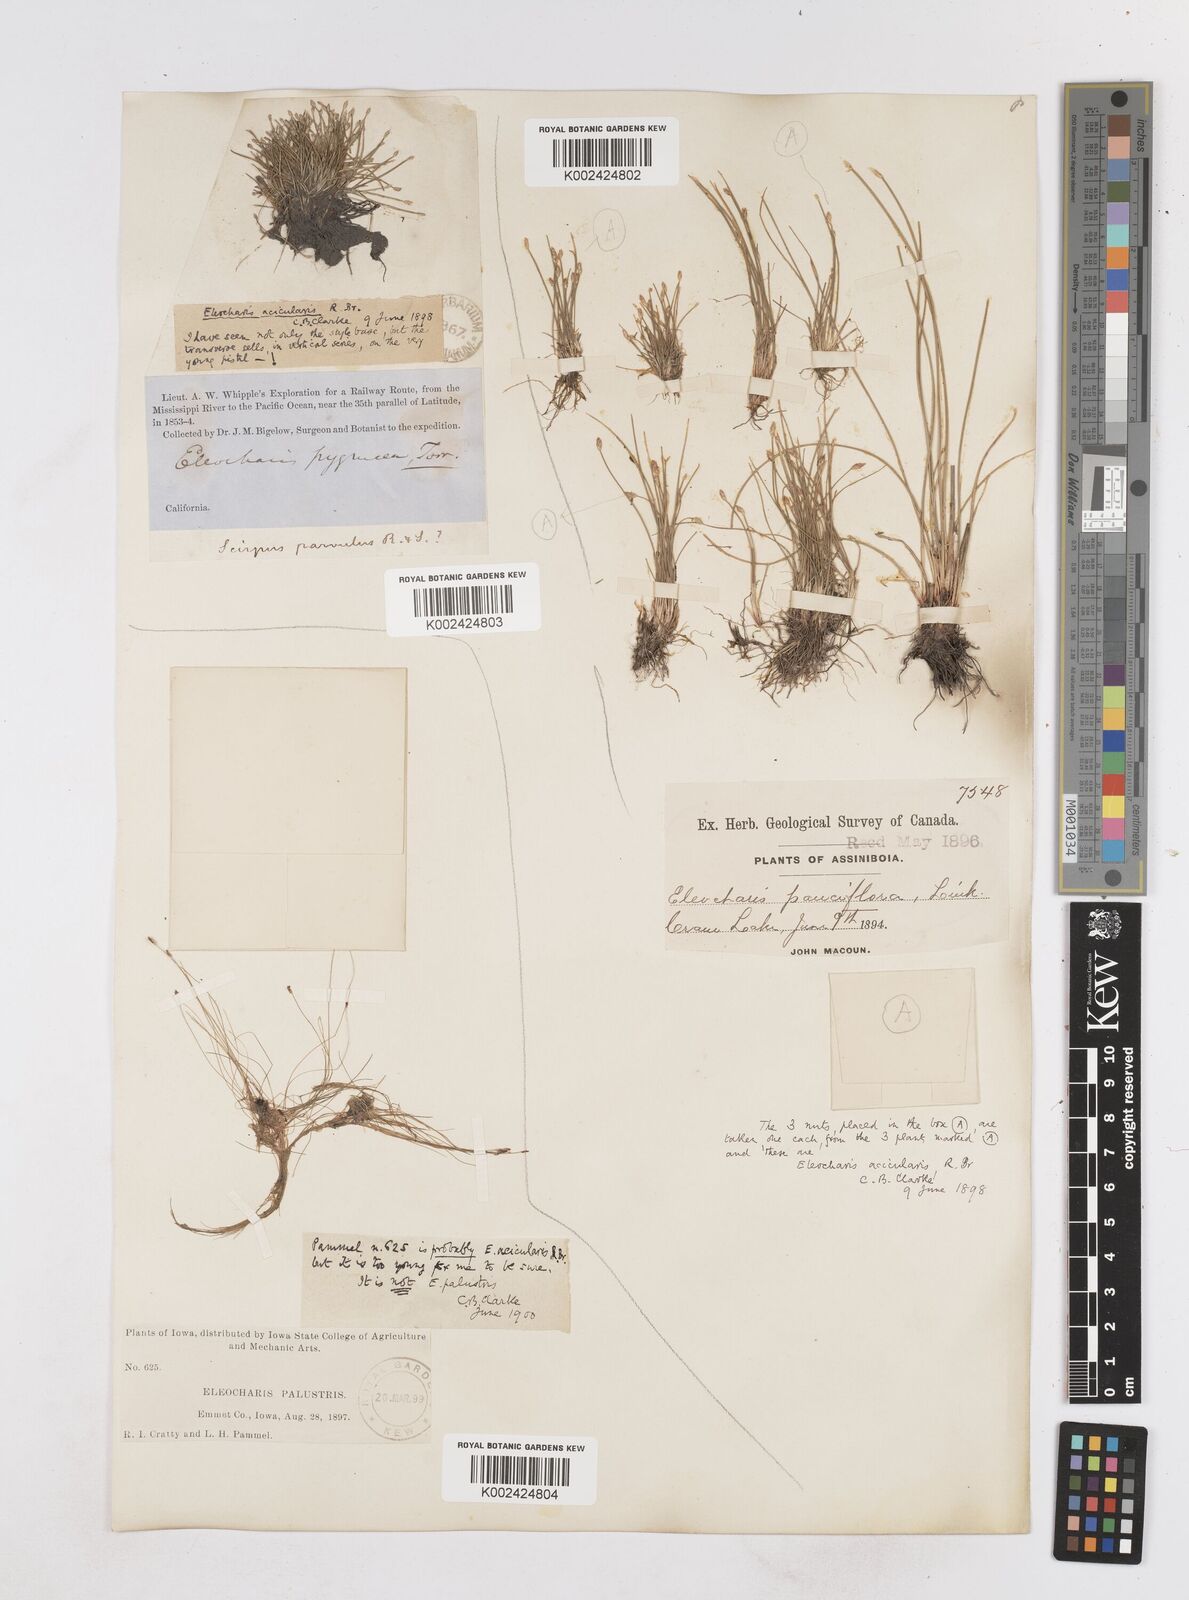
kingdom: Plantae
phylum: Tracheophyta
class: Liliopsida
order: Poales
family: Cyperaceae
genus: Eleocharis
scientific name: Eleocharis acicularis
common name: Needle spike-rush
